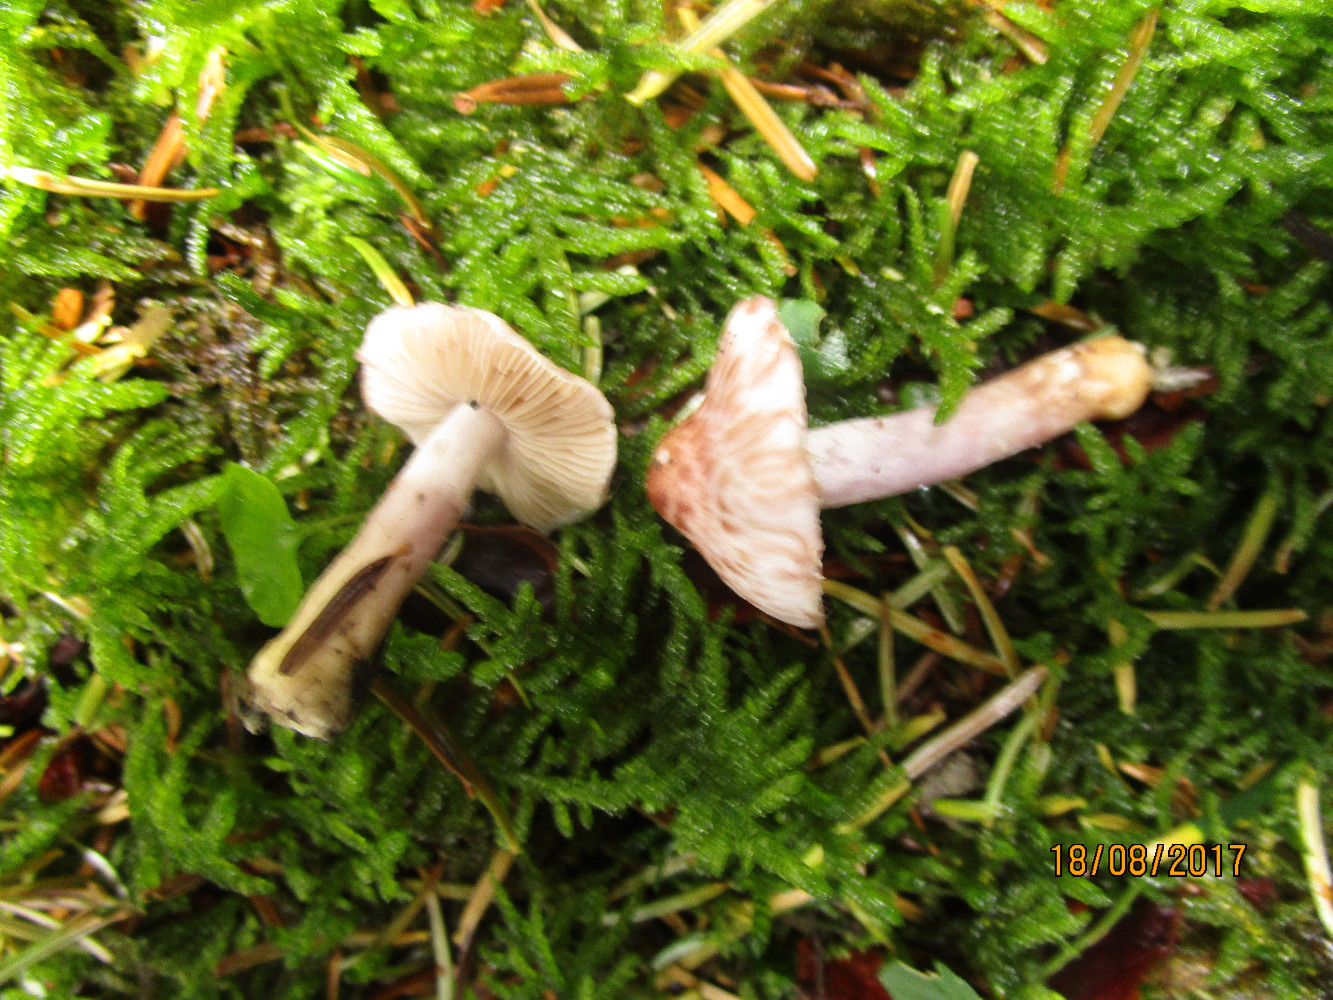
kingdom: Fungi
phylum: Basidiomycota
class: Agaricomycetes
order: Agaricales
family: Inocybaceae
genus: Inocybe
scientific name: Inocybe
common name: trævlhat
